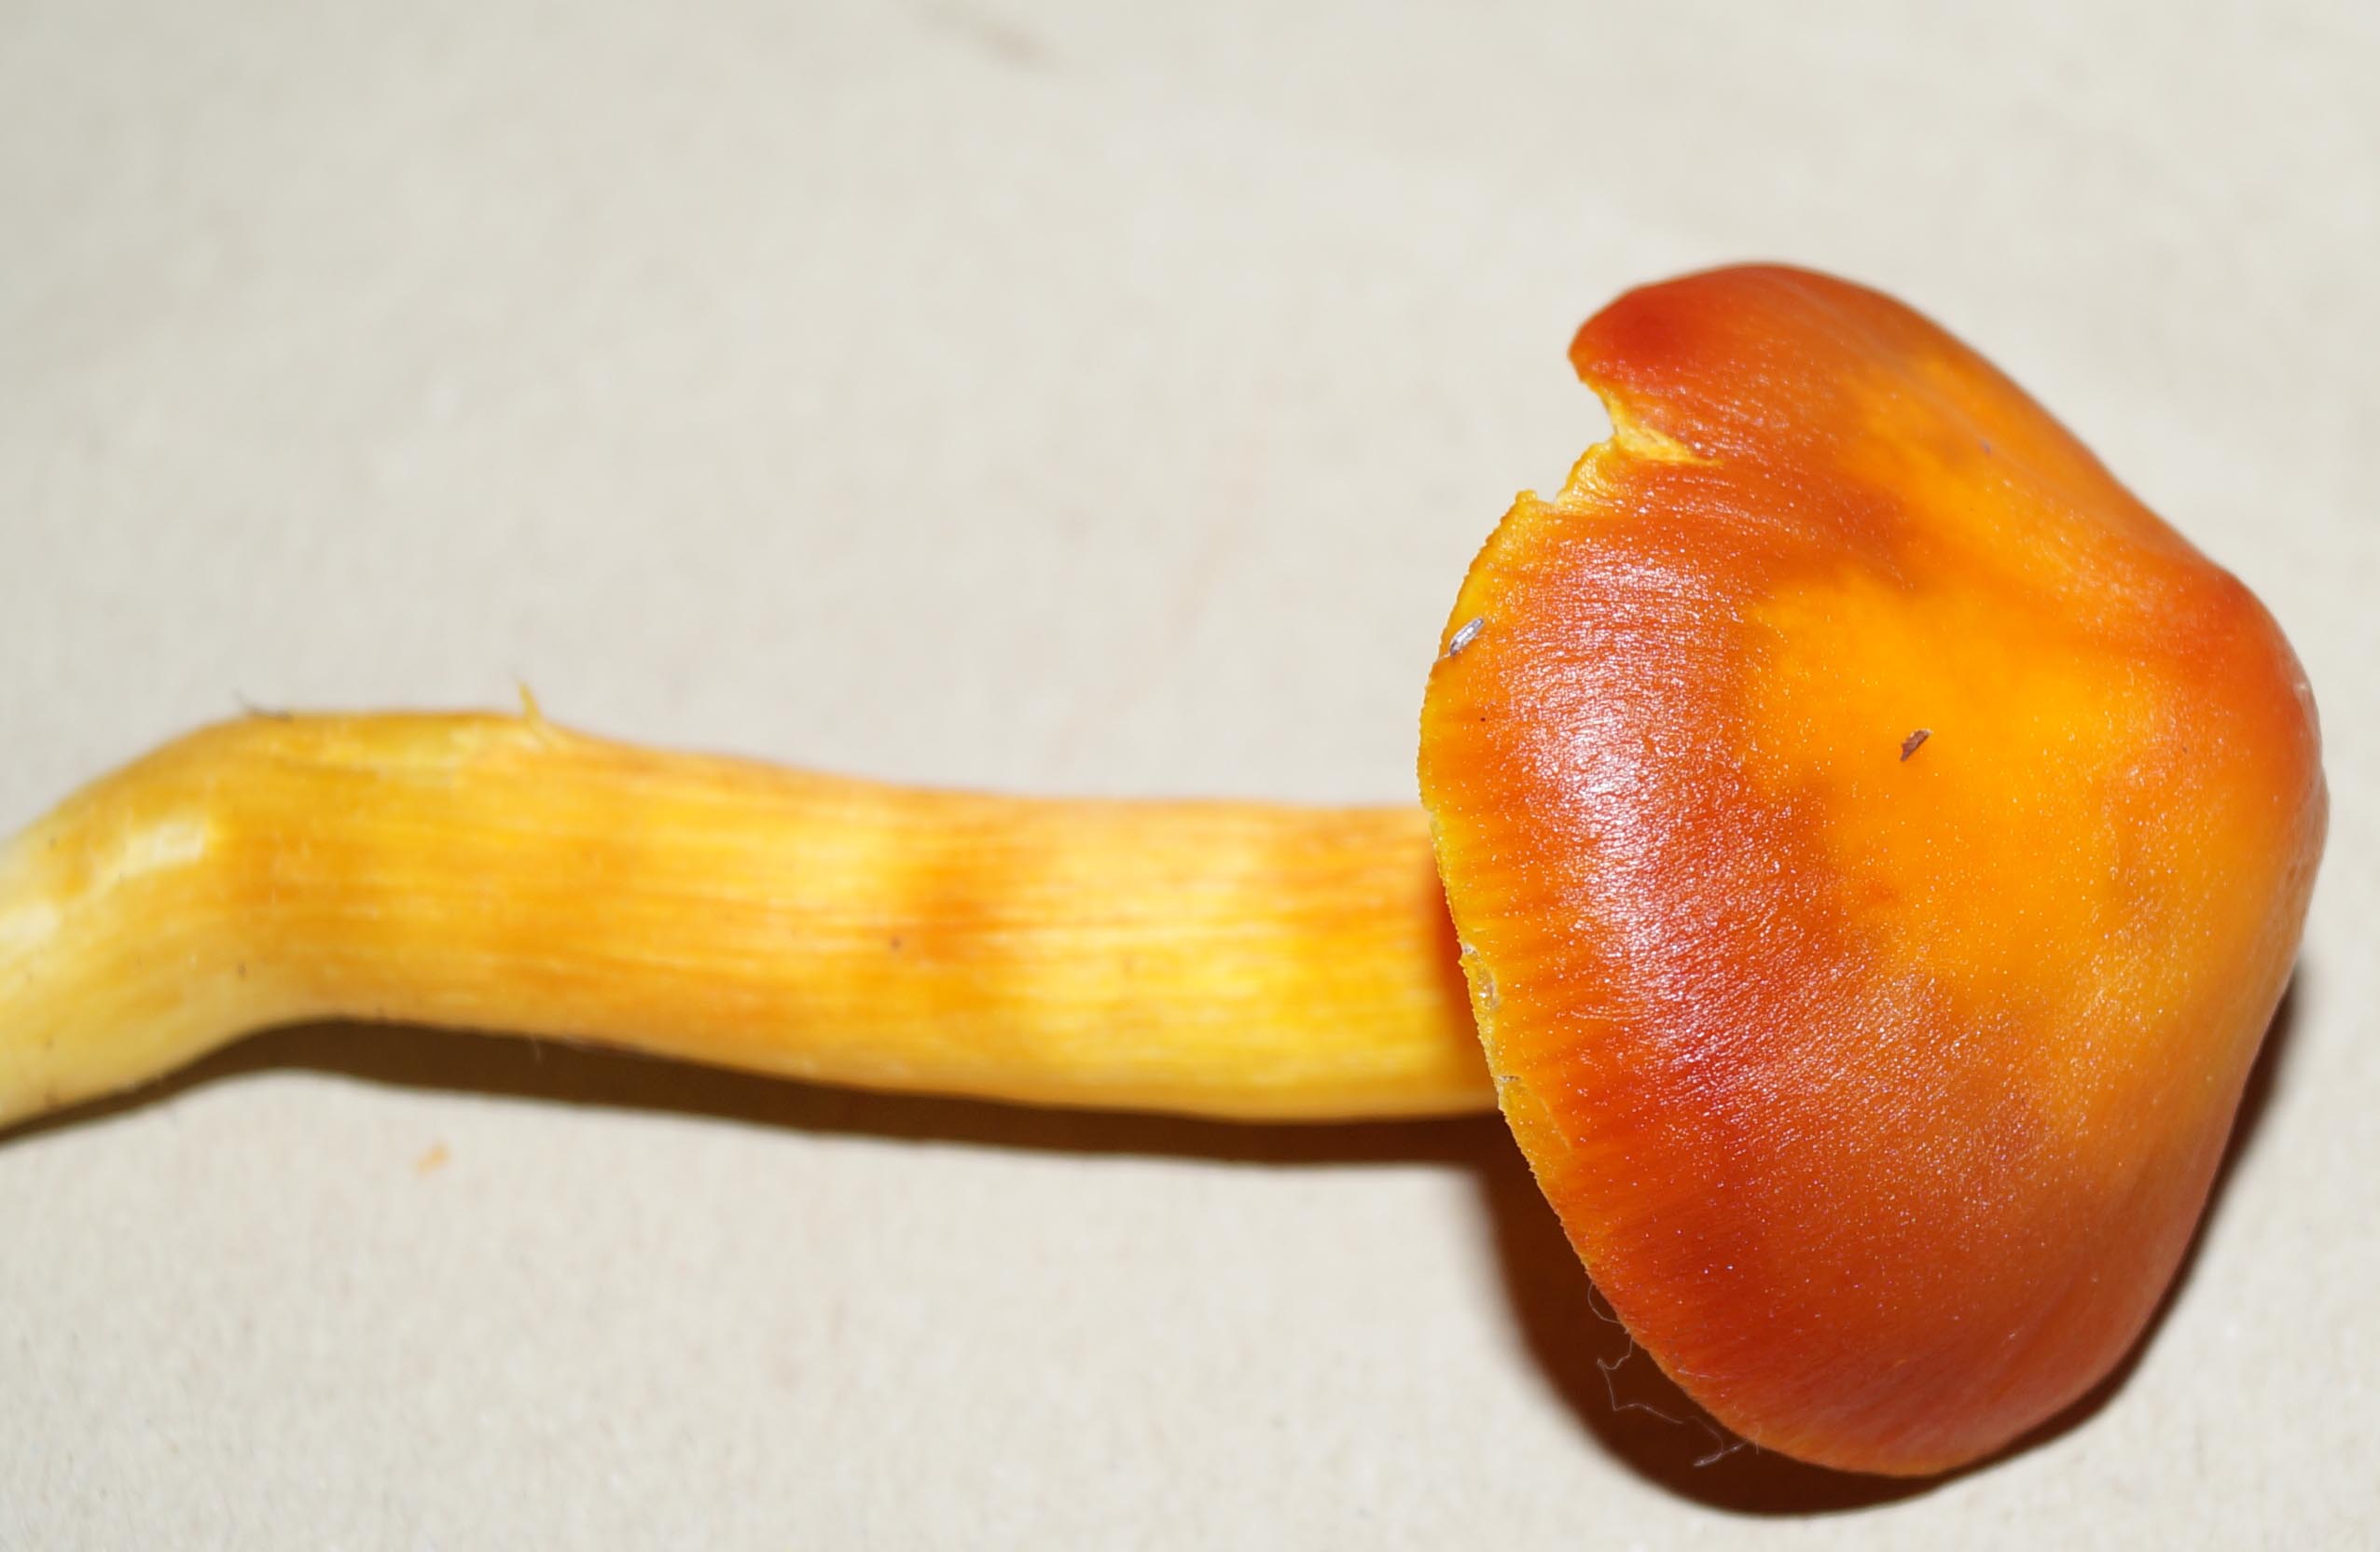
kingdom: Fungi
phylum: Basidiomycota
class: Agaricomycetes
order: Agaricales
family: Hygrophoraceae
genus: Hygrocybe
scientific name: Hygrocybe punicea
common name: skarlagen-vokshat
